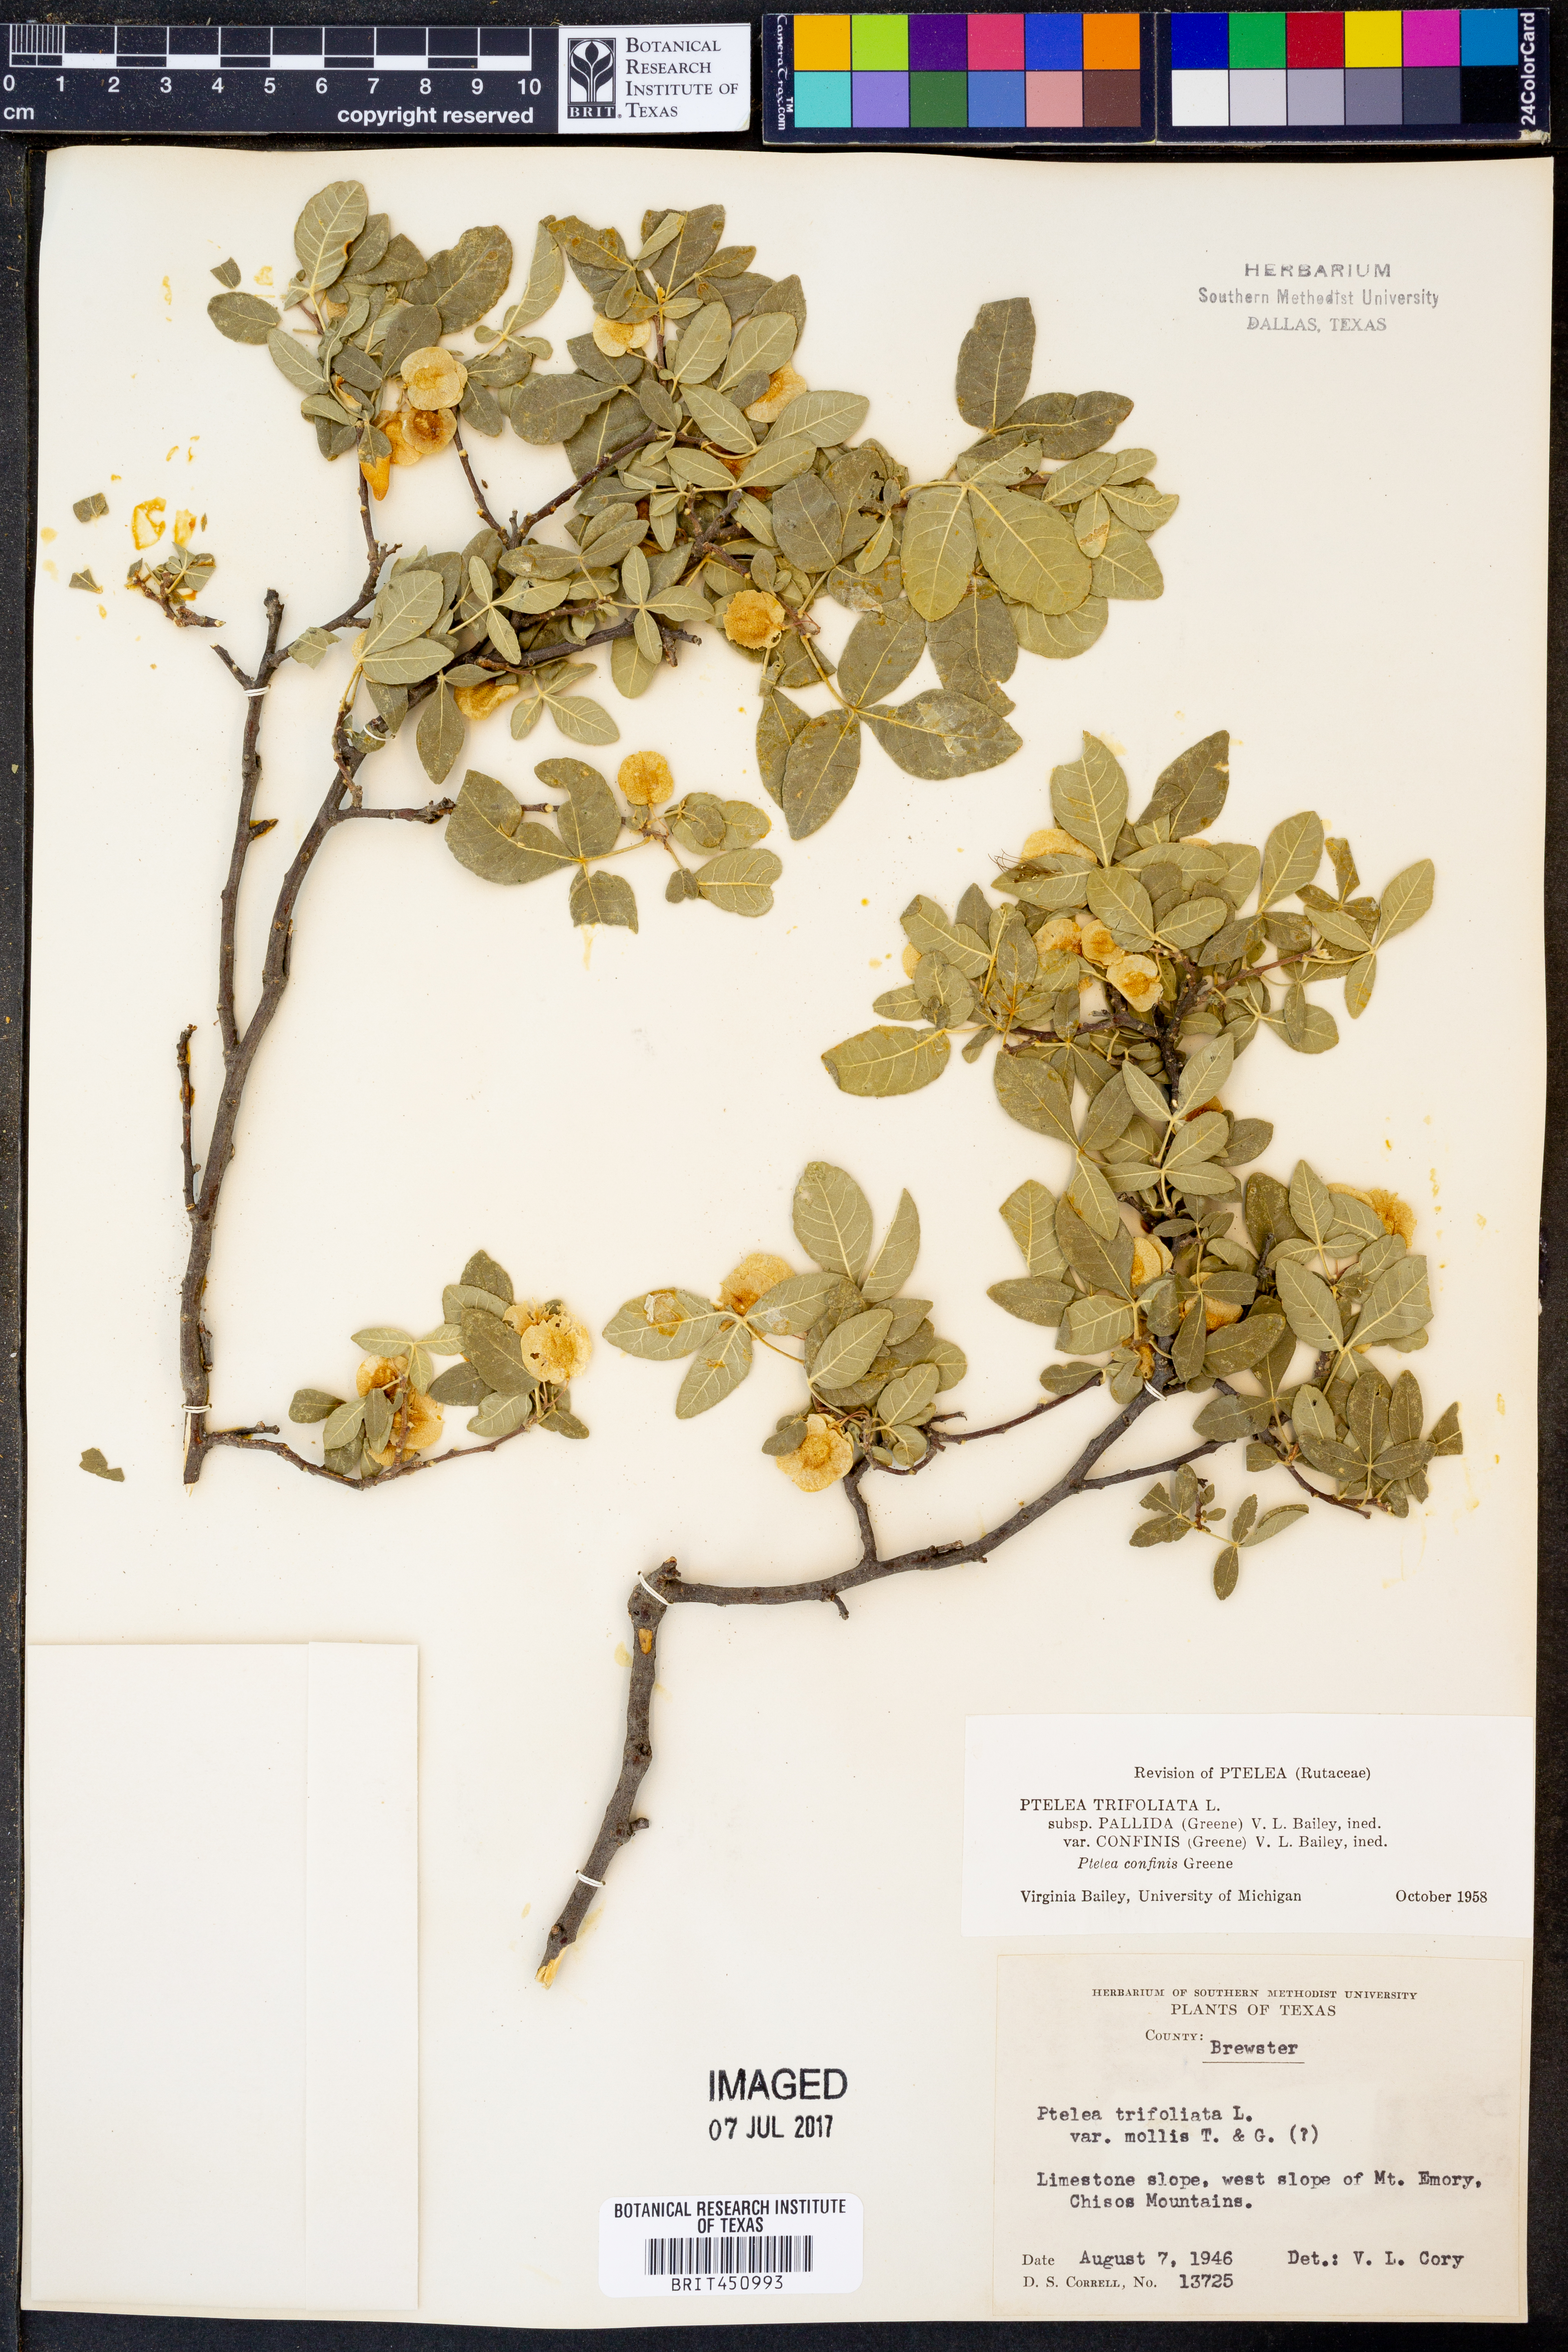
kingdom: Plantae
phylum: Tracheophyta
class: Magnoliopsida
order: Sapindales
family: Rutaceae
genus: Ptelea
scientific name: Ptelea trifoliata
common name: Common hop-tree
